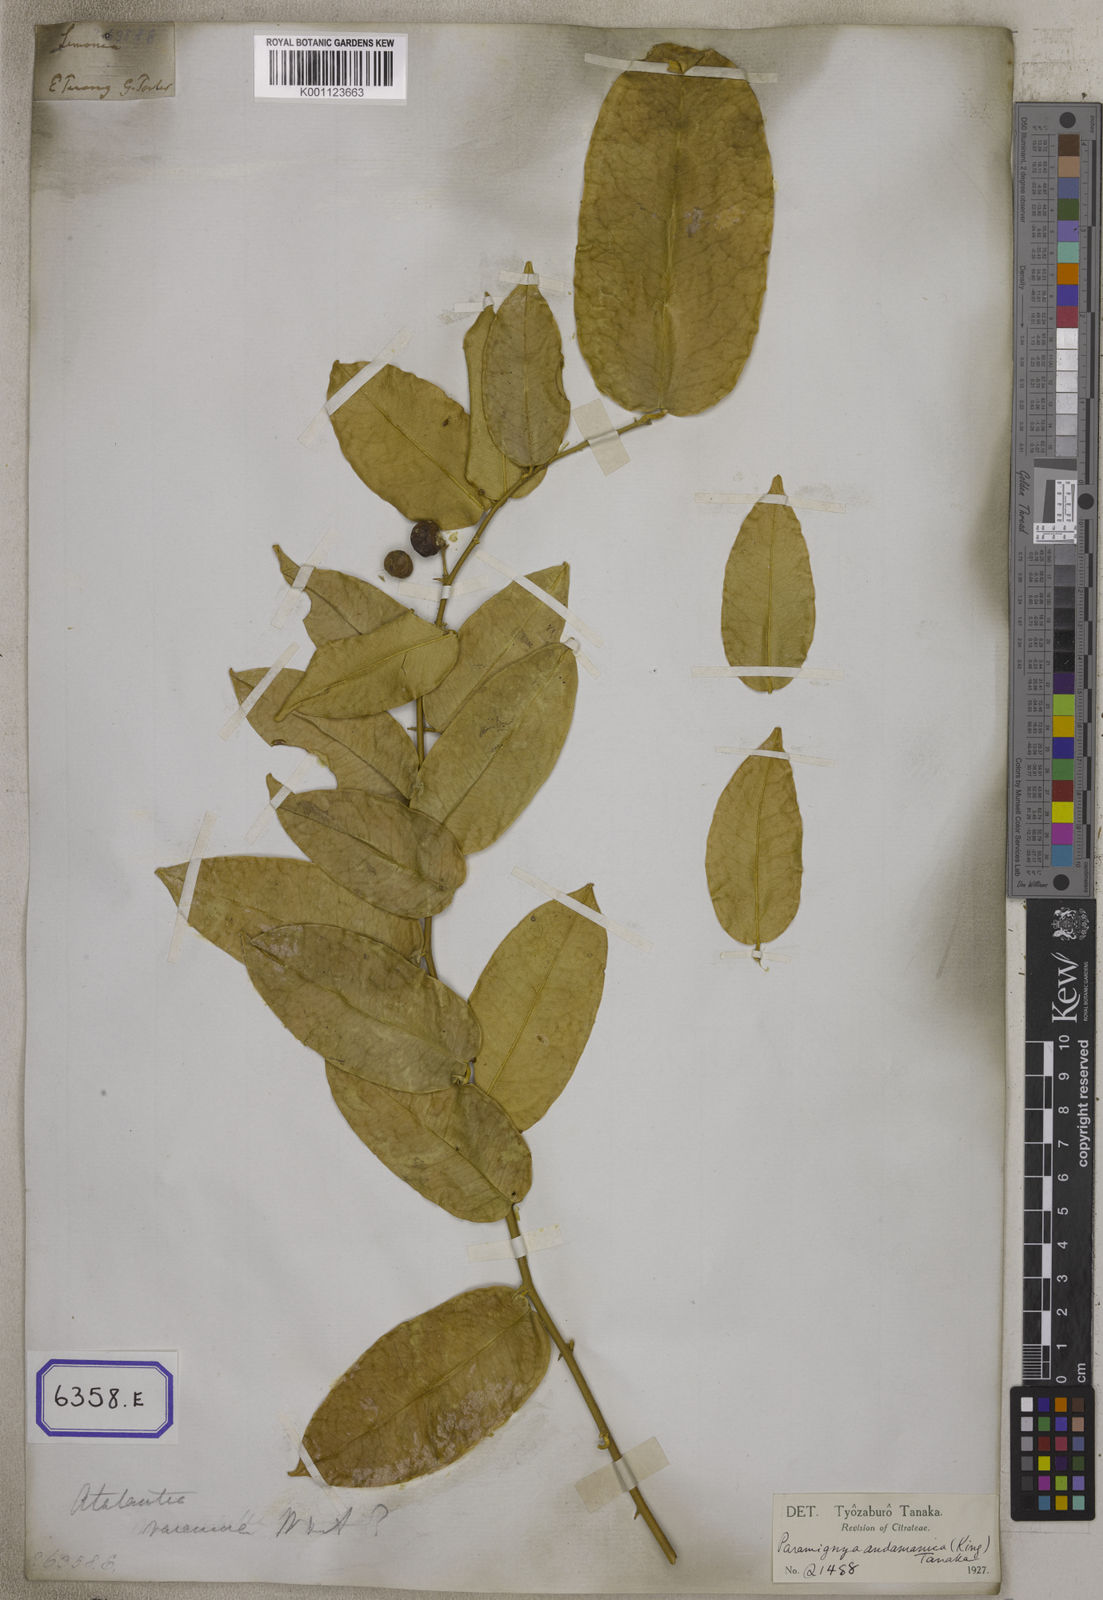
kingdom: Plantae
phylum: Tracheophyta
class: Magnoliopsida
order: Sapindales
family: Rutaceae
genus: Limonia
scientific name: Limonia
